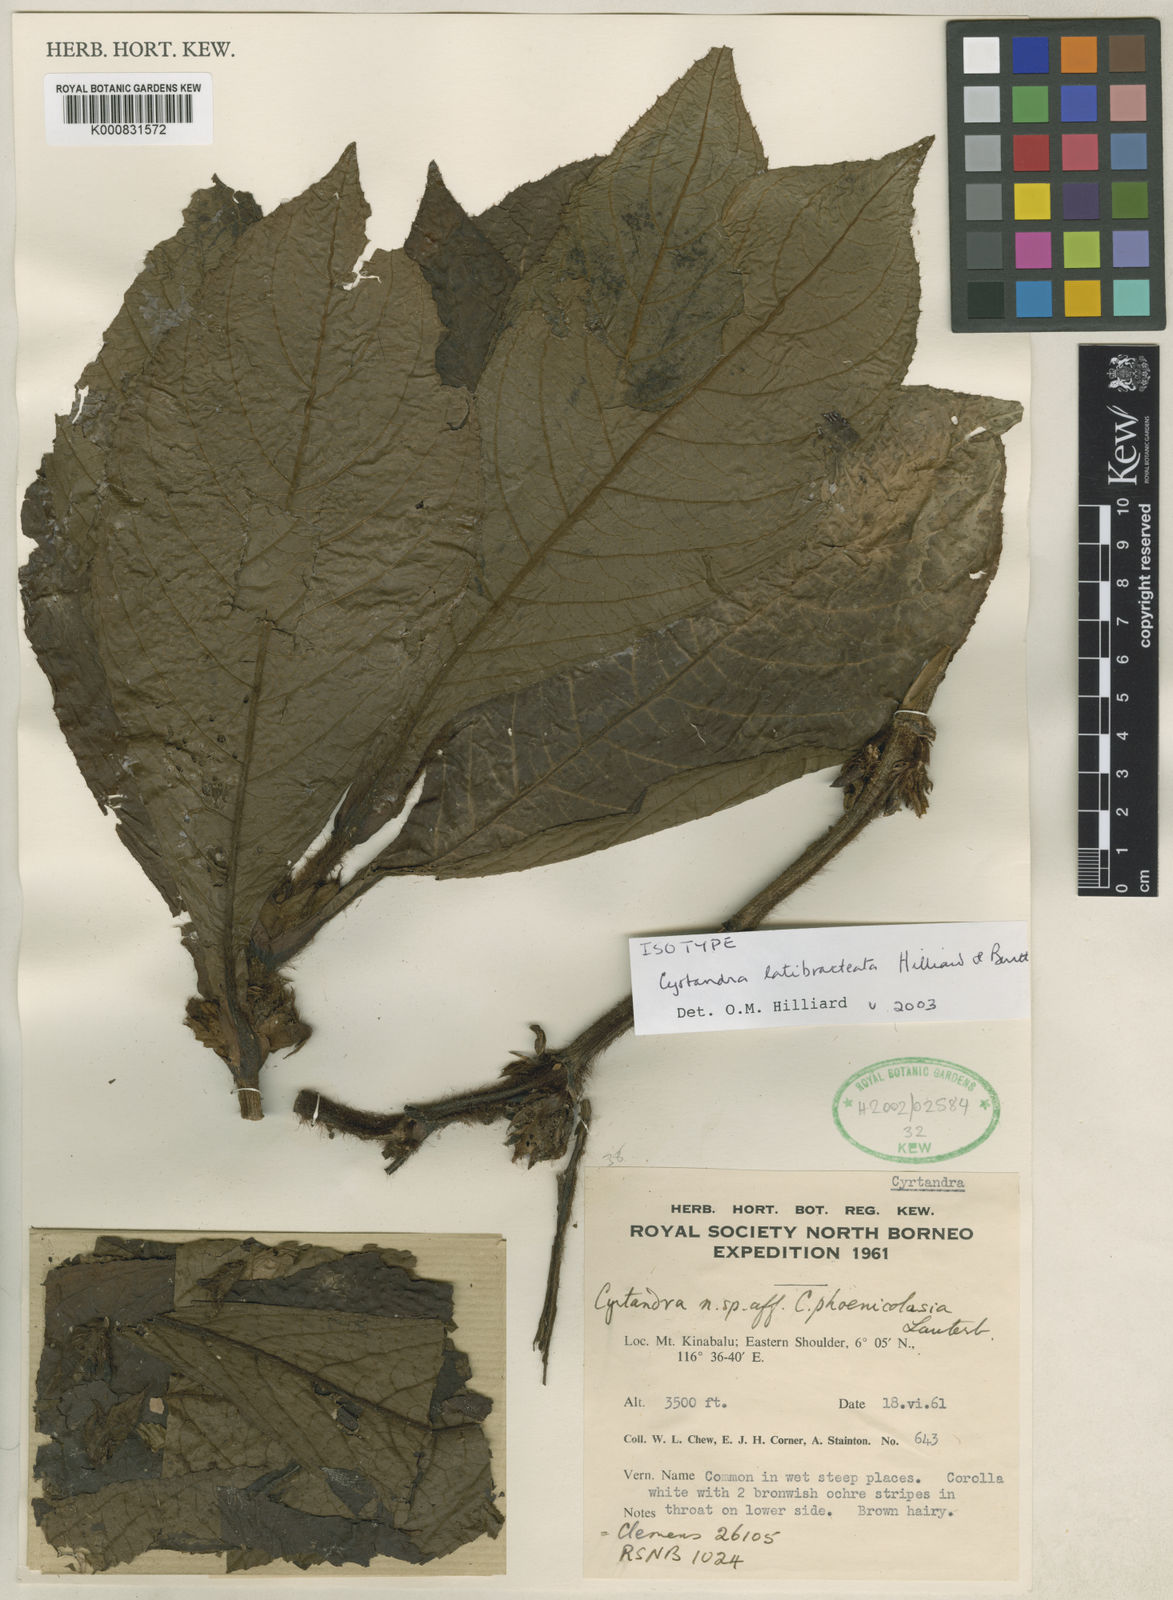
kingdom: Plantae
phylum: Tracheophyta
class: Magnoliopsida
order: Lamiales
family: Gesneriaceae
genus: Cyrtandra
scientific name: Cyrtandra latibracteata
